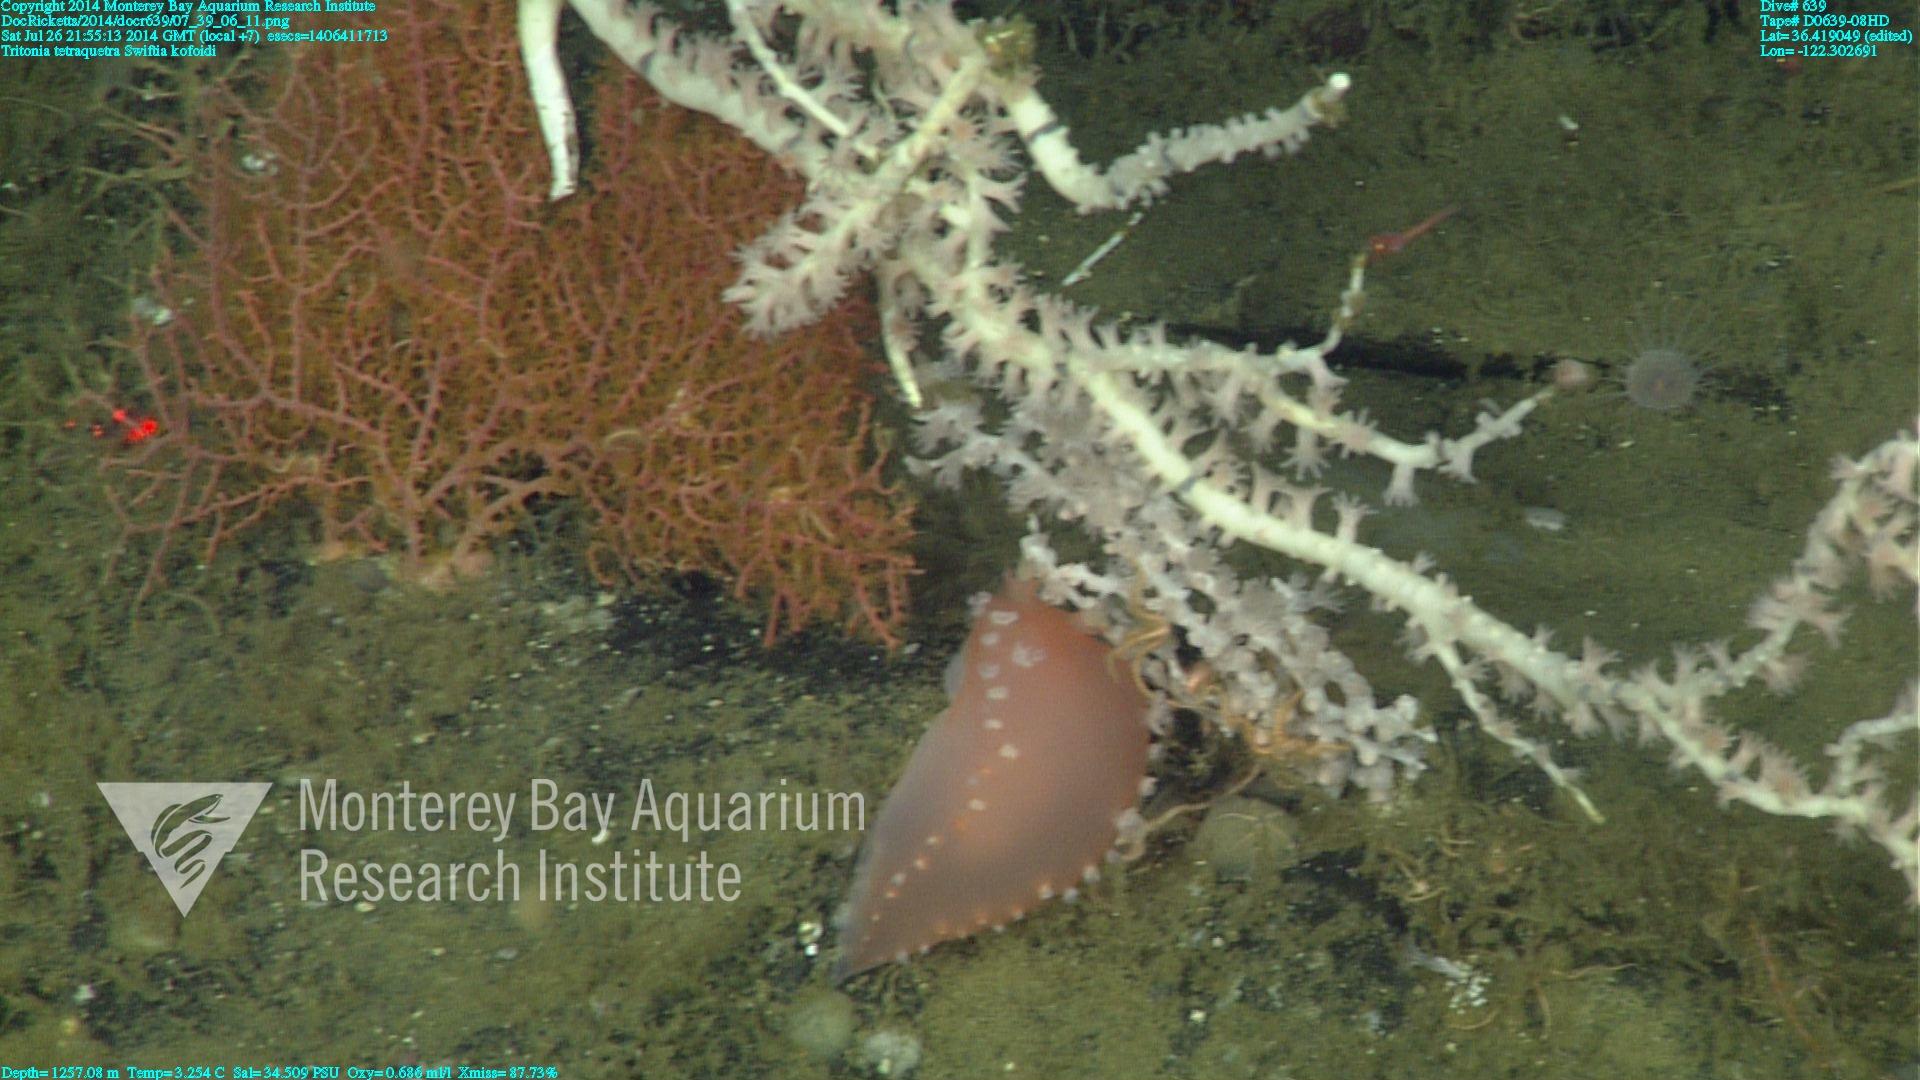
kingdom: Animalia
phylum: Cnidaria
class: Anthozoa
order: Malacalcyonacea
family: Gorgoniidae
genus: Callistephanus
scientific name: Callistephanus kofoidi
